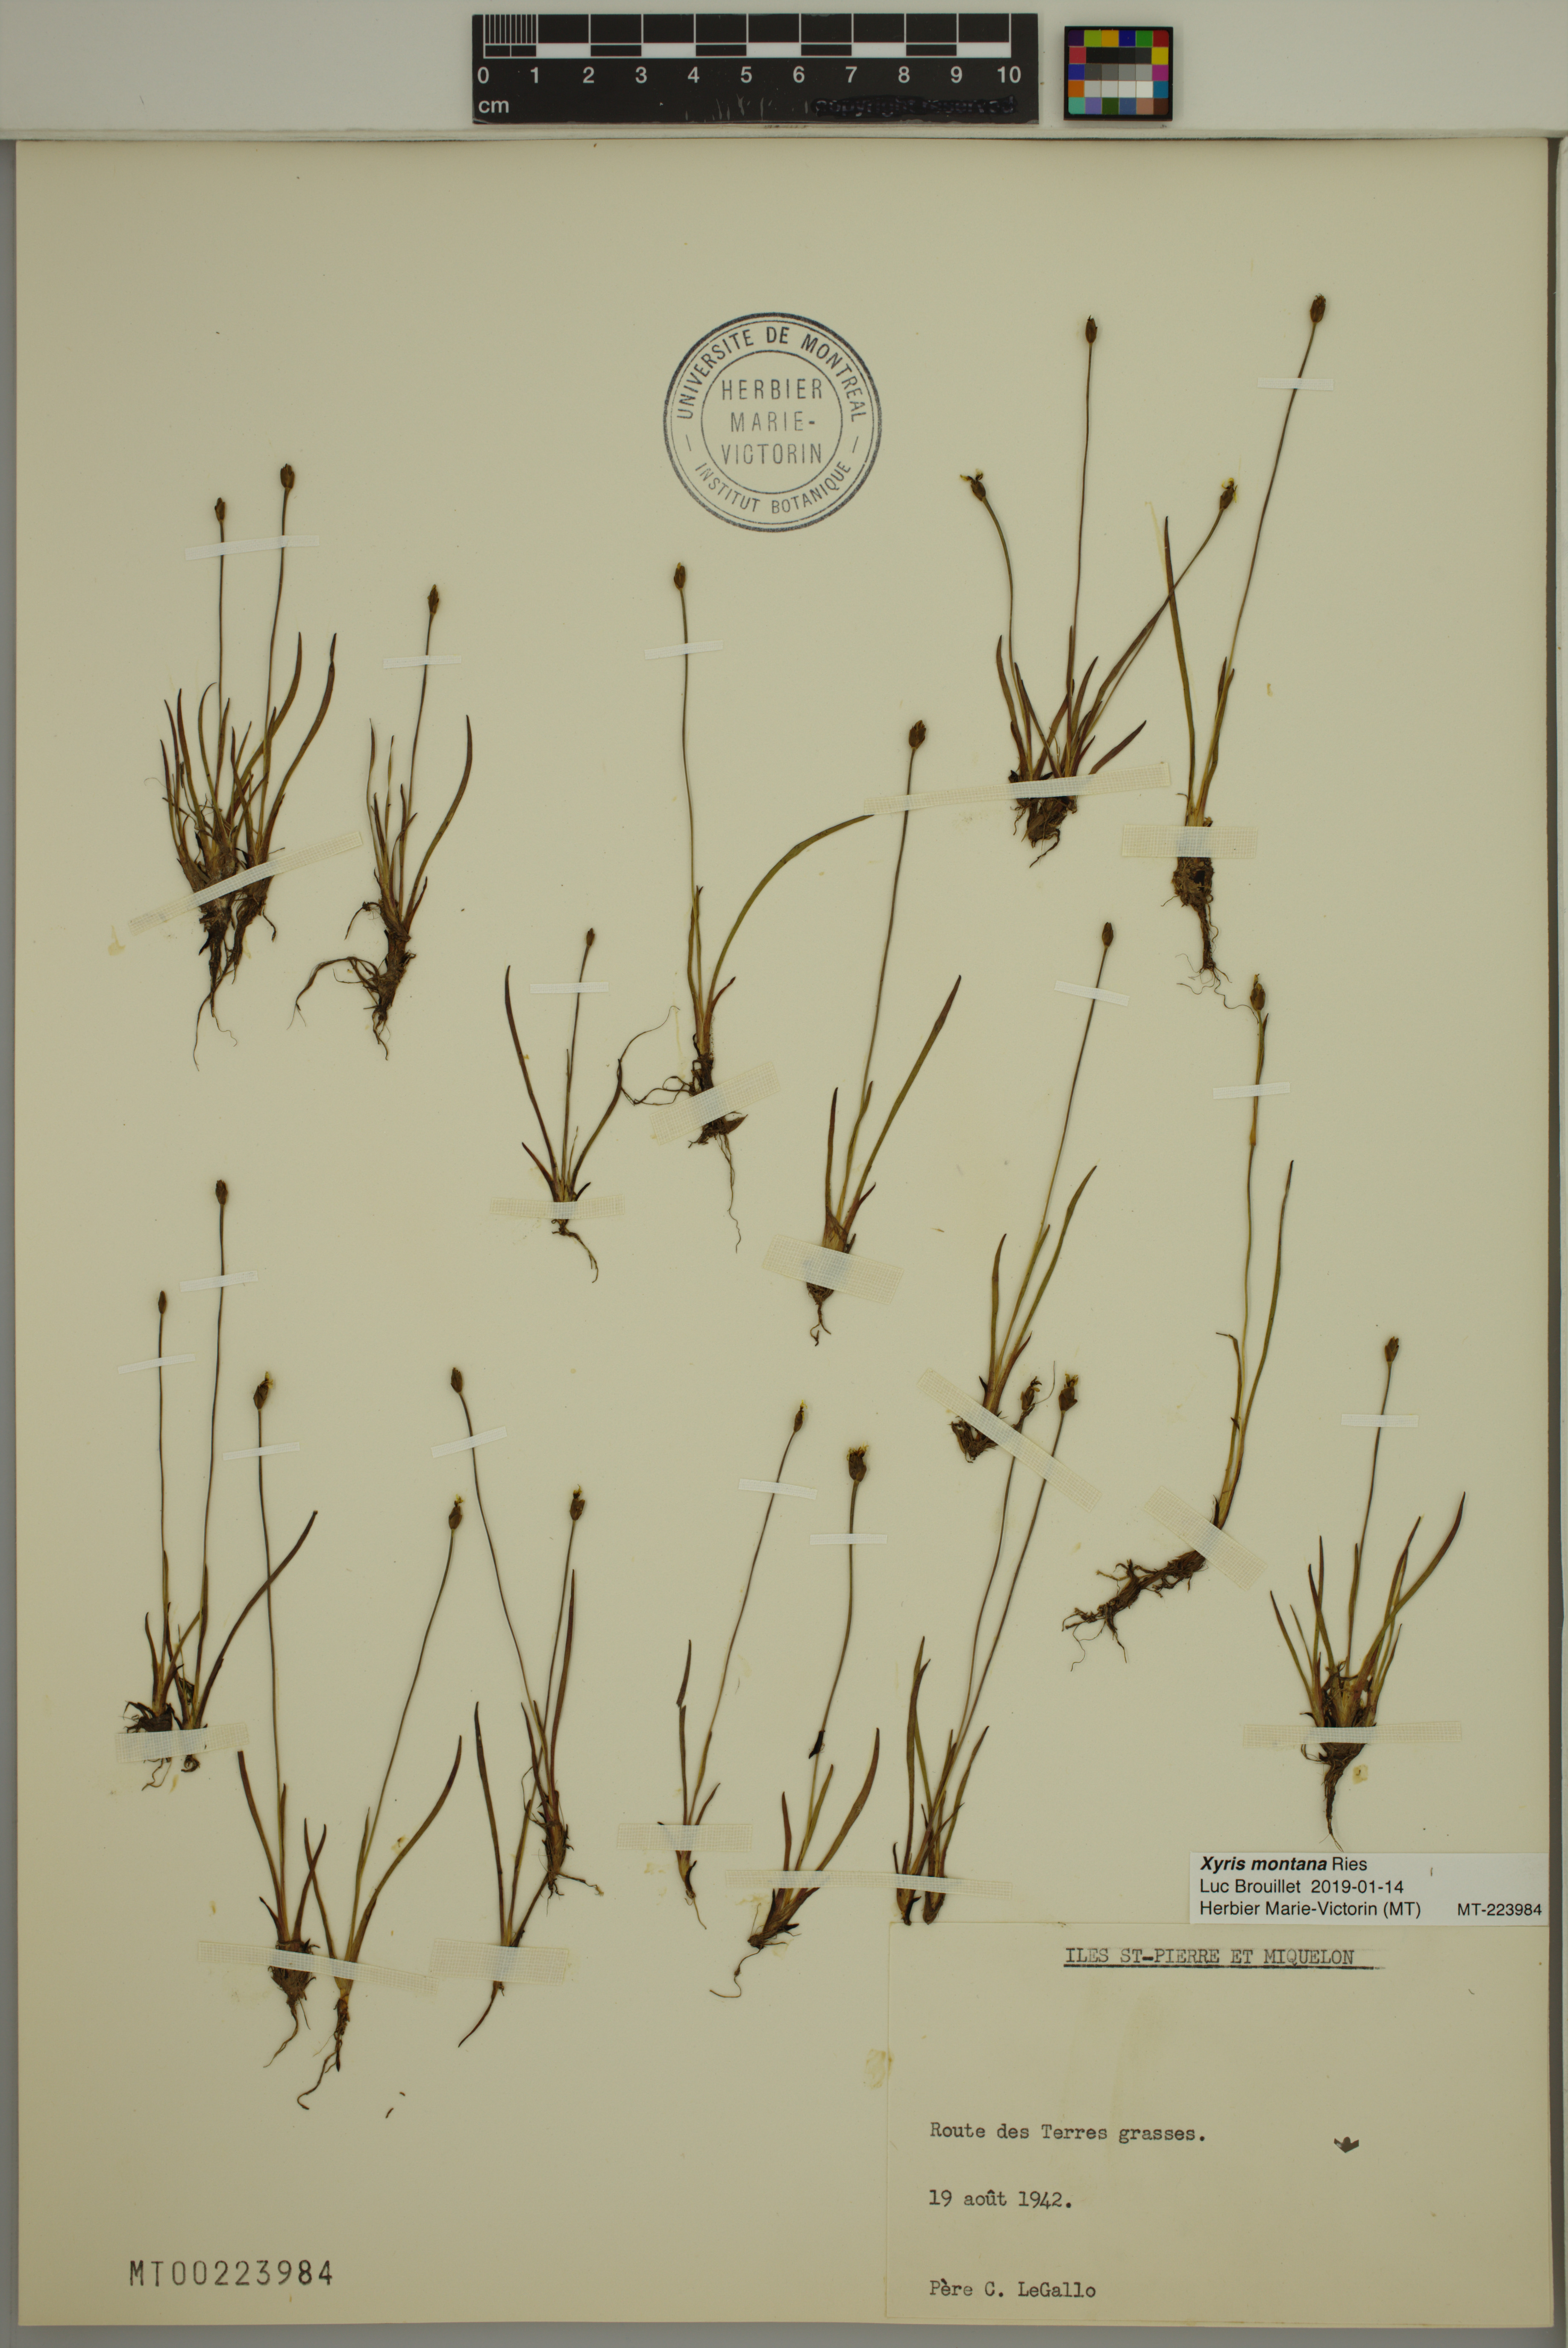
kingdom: Plantae
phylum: Tracheophyta
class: Liliopsida
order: Poales
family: Xyridaceae
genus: Xyris
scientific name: Xyris montana
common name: Northern yellow-eyed-grass
